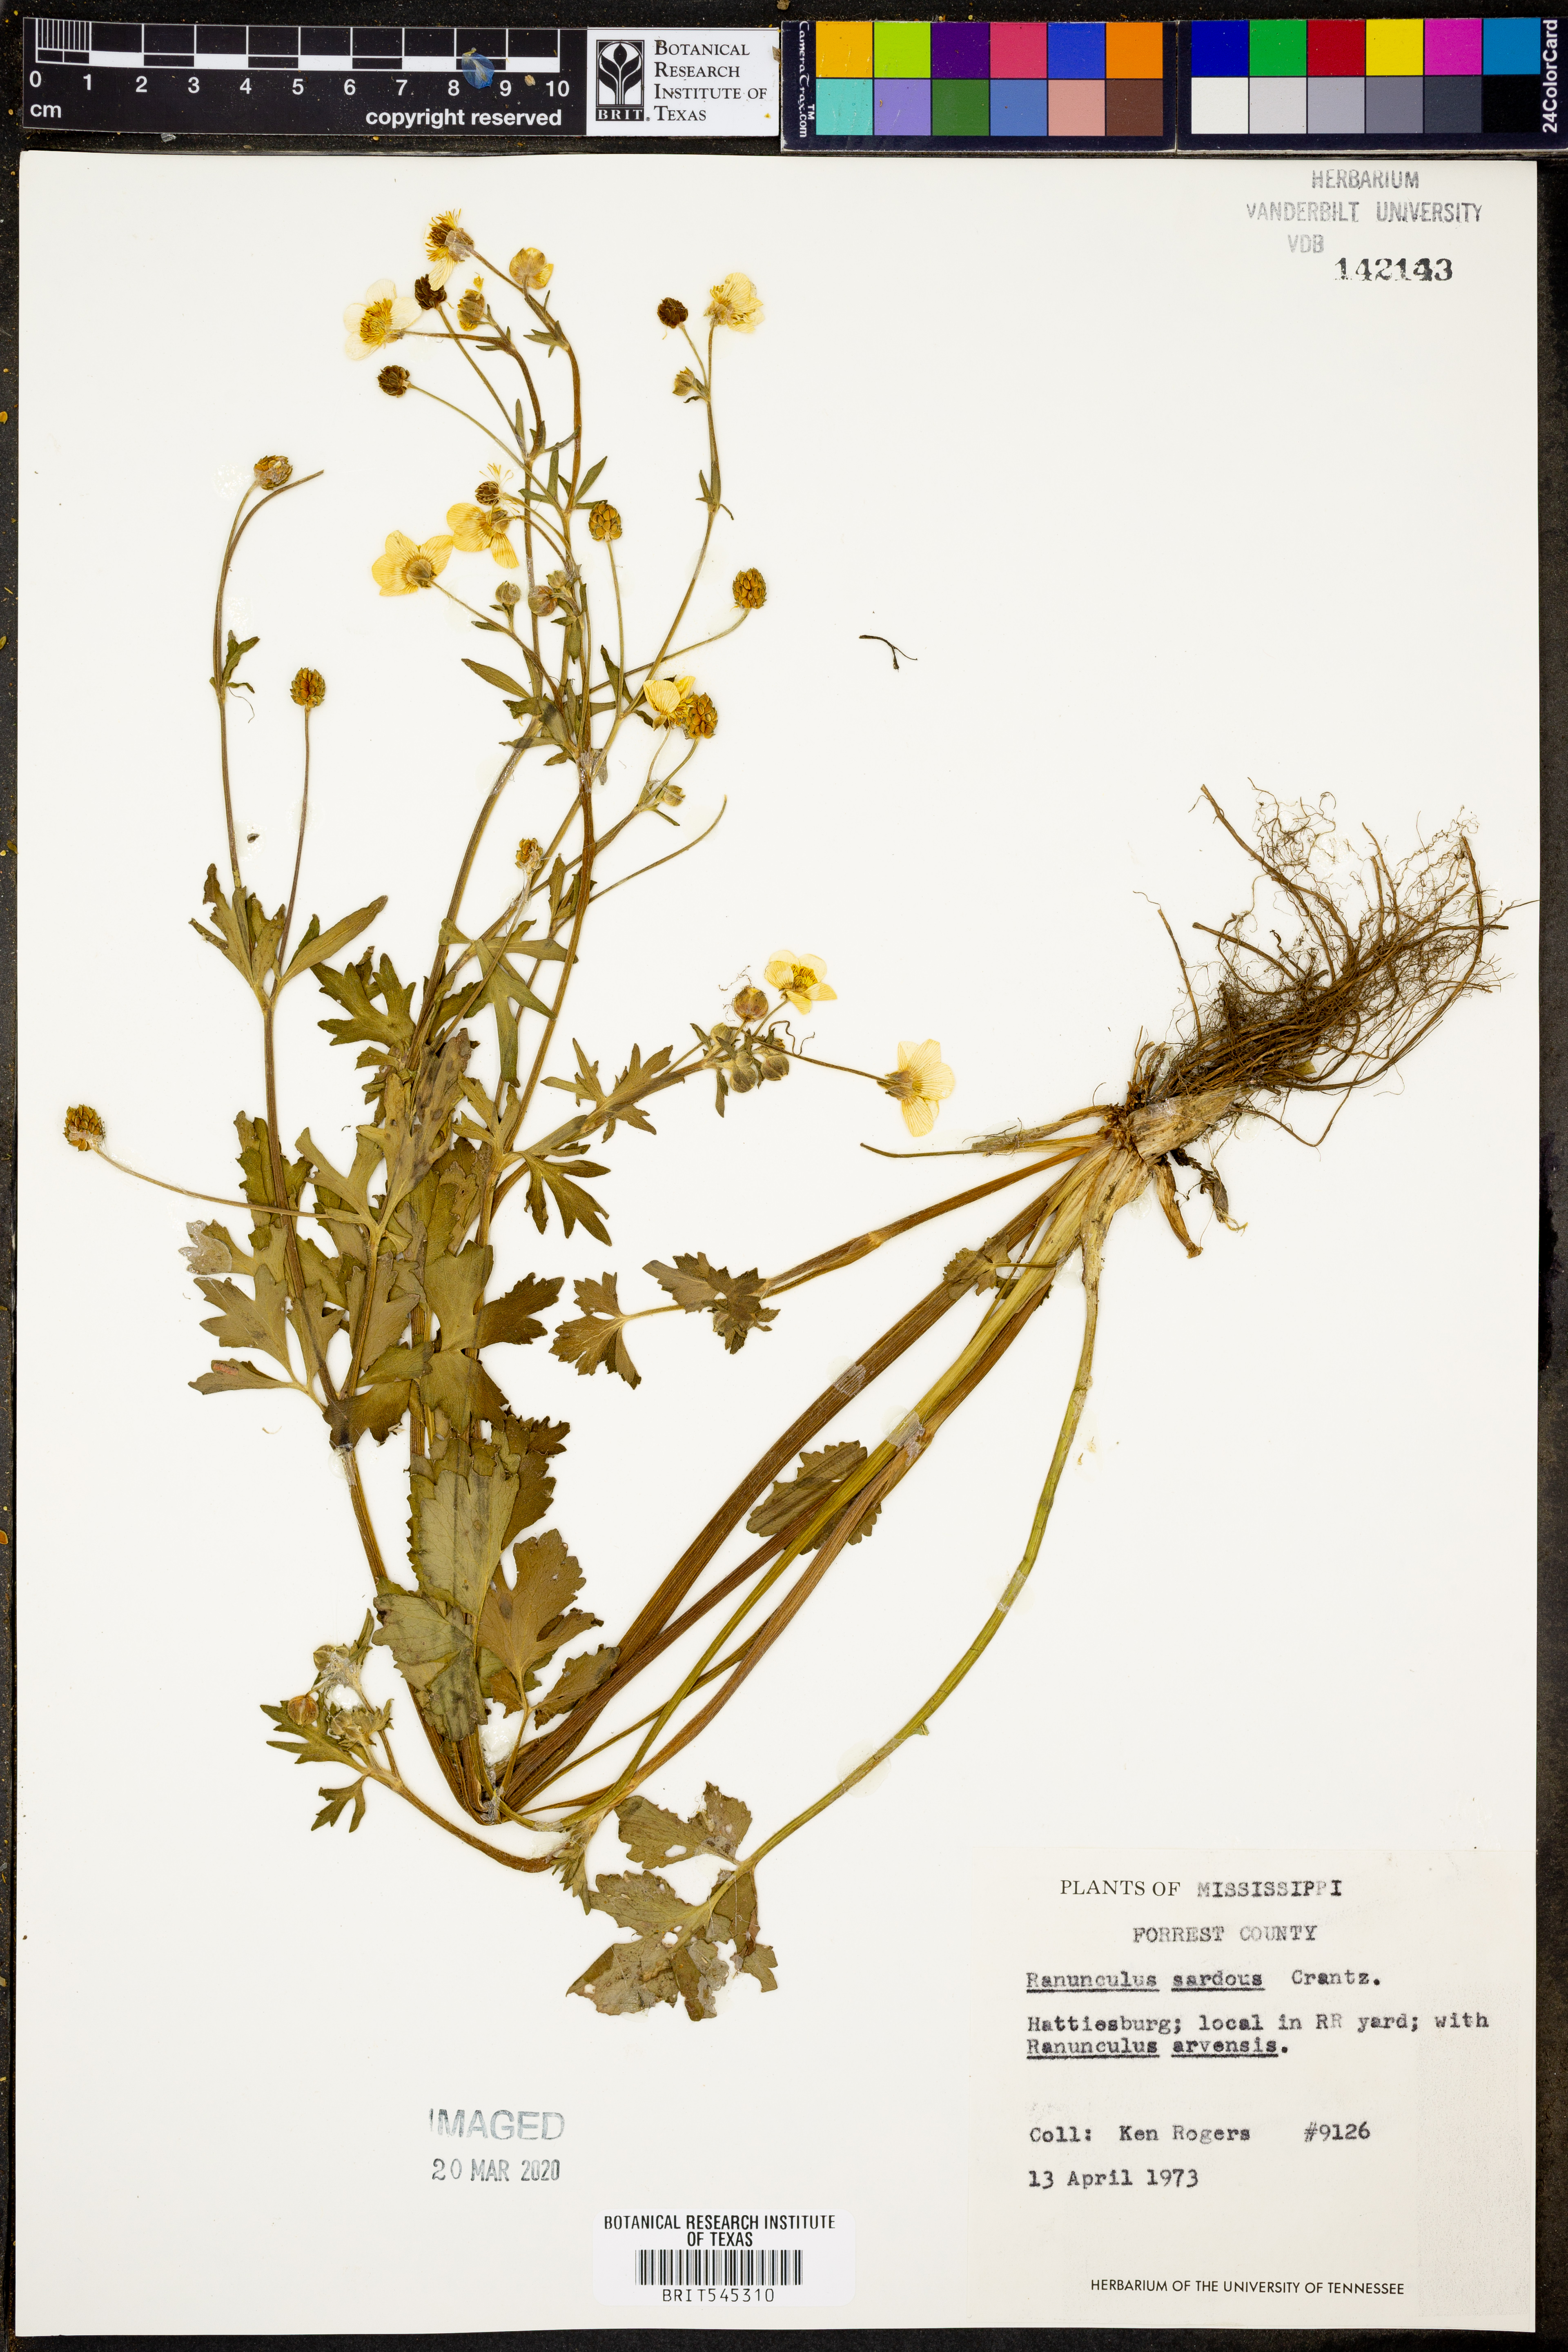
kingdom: Plantae
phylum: Tracheophyta
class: Magnoliopsida
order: Ranunculales
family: Ranunculaceae
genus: Ranunculus
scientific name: Ranunculus sardous
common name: Hairy buttercup
